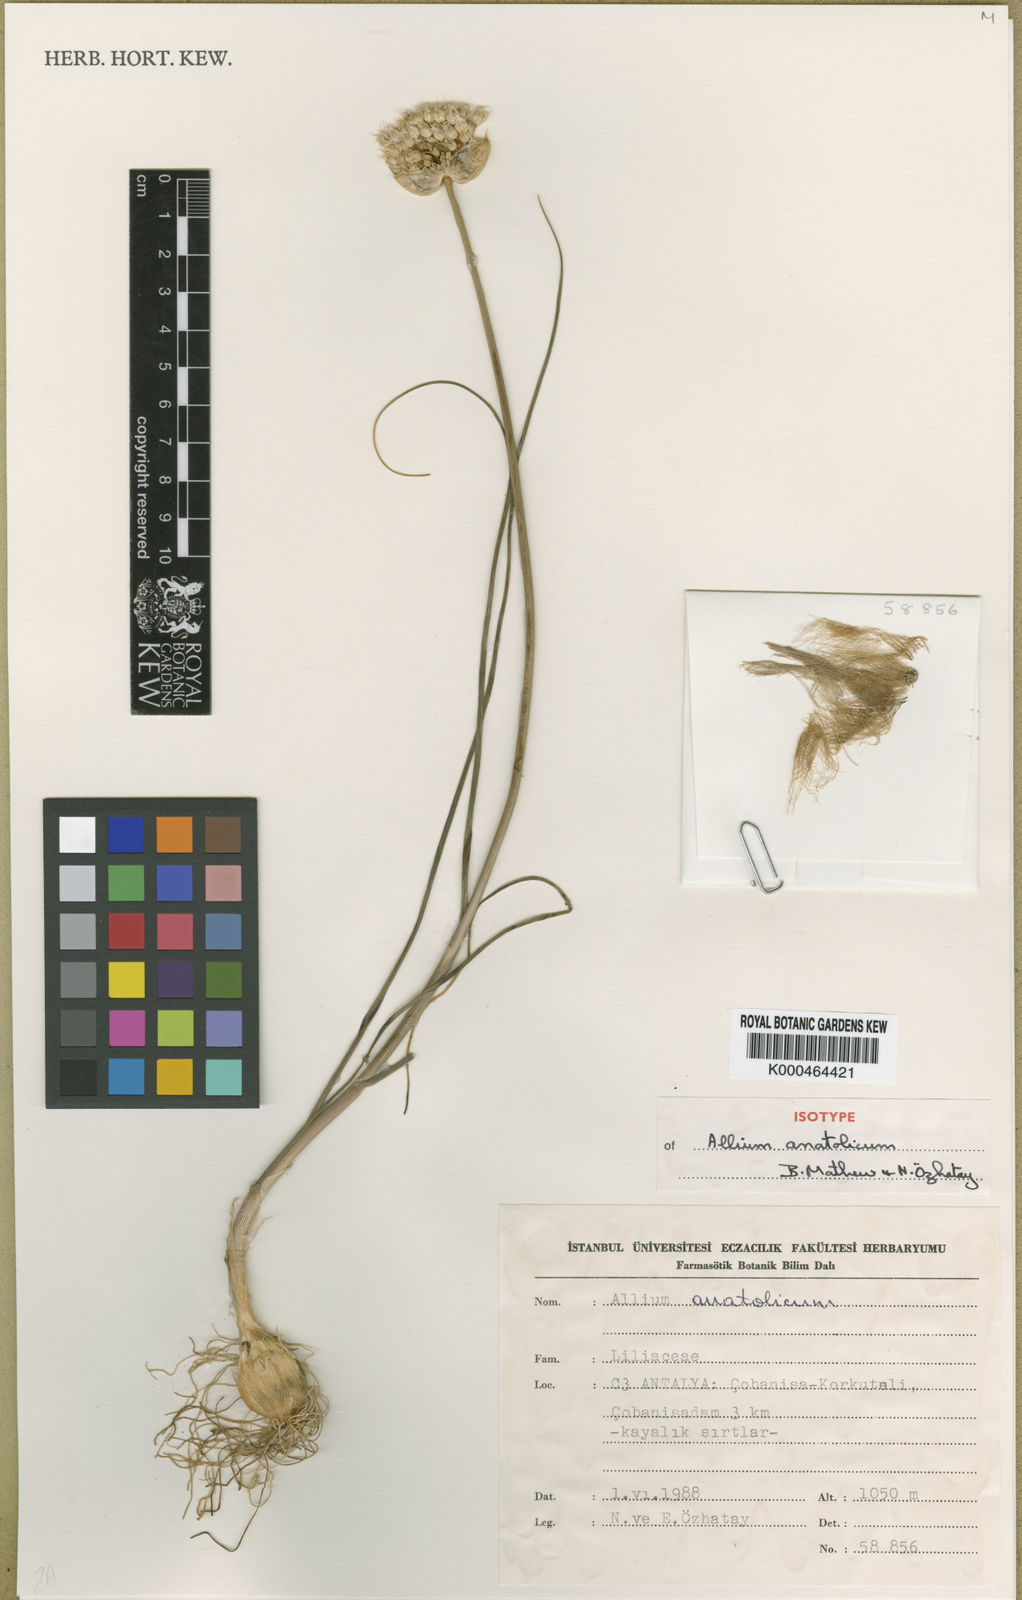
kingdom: Plantae
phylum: Tracheophyta
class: Liliopsida
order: Asparagales
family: Amaryllidaceae
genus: Allium
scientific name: Allium
